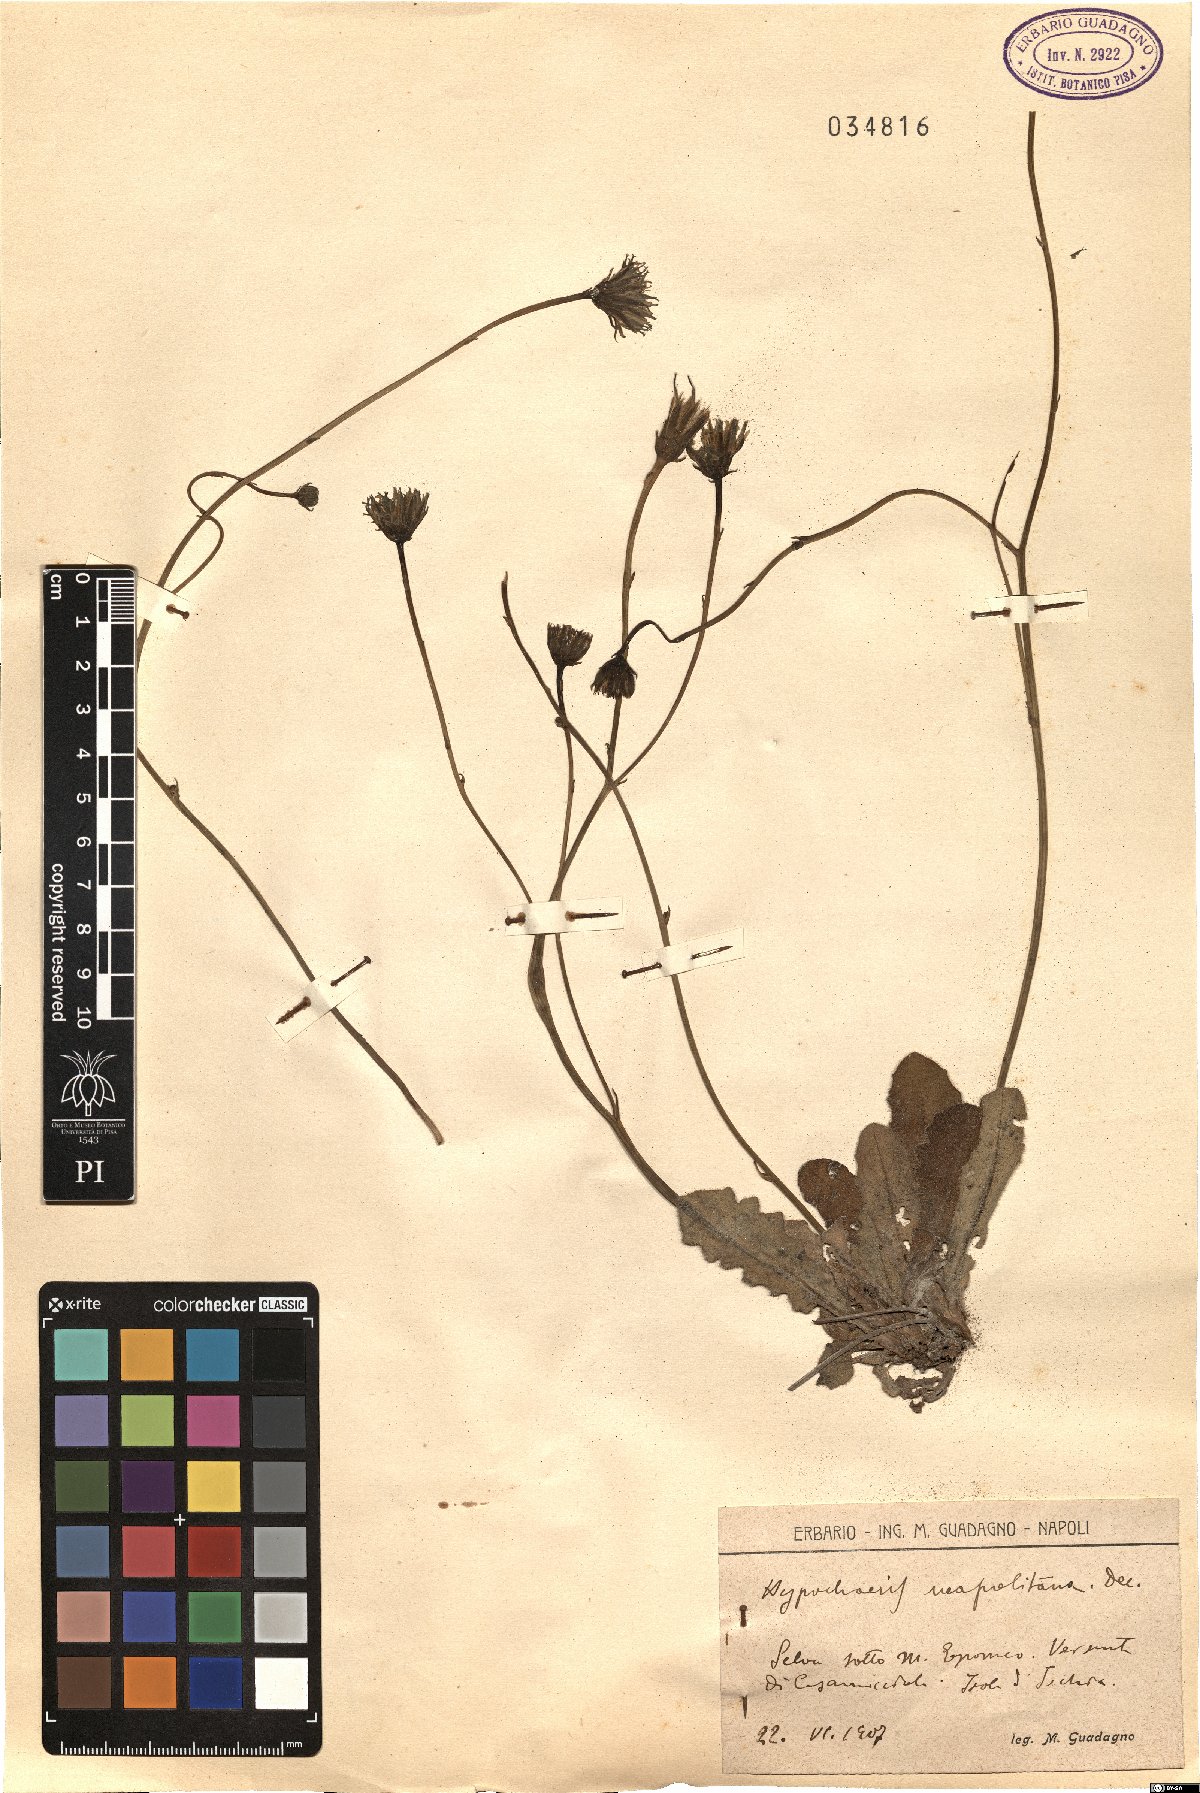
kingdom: Plantae
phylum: Tracheophyta
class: Magnoliopsida
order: Asterales
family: Asteraceae
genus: Hypochaeris
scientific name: Hypochaeris radicata
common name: Flatweed
